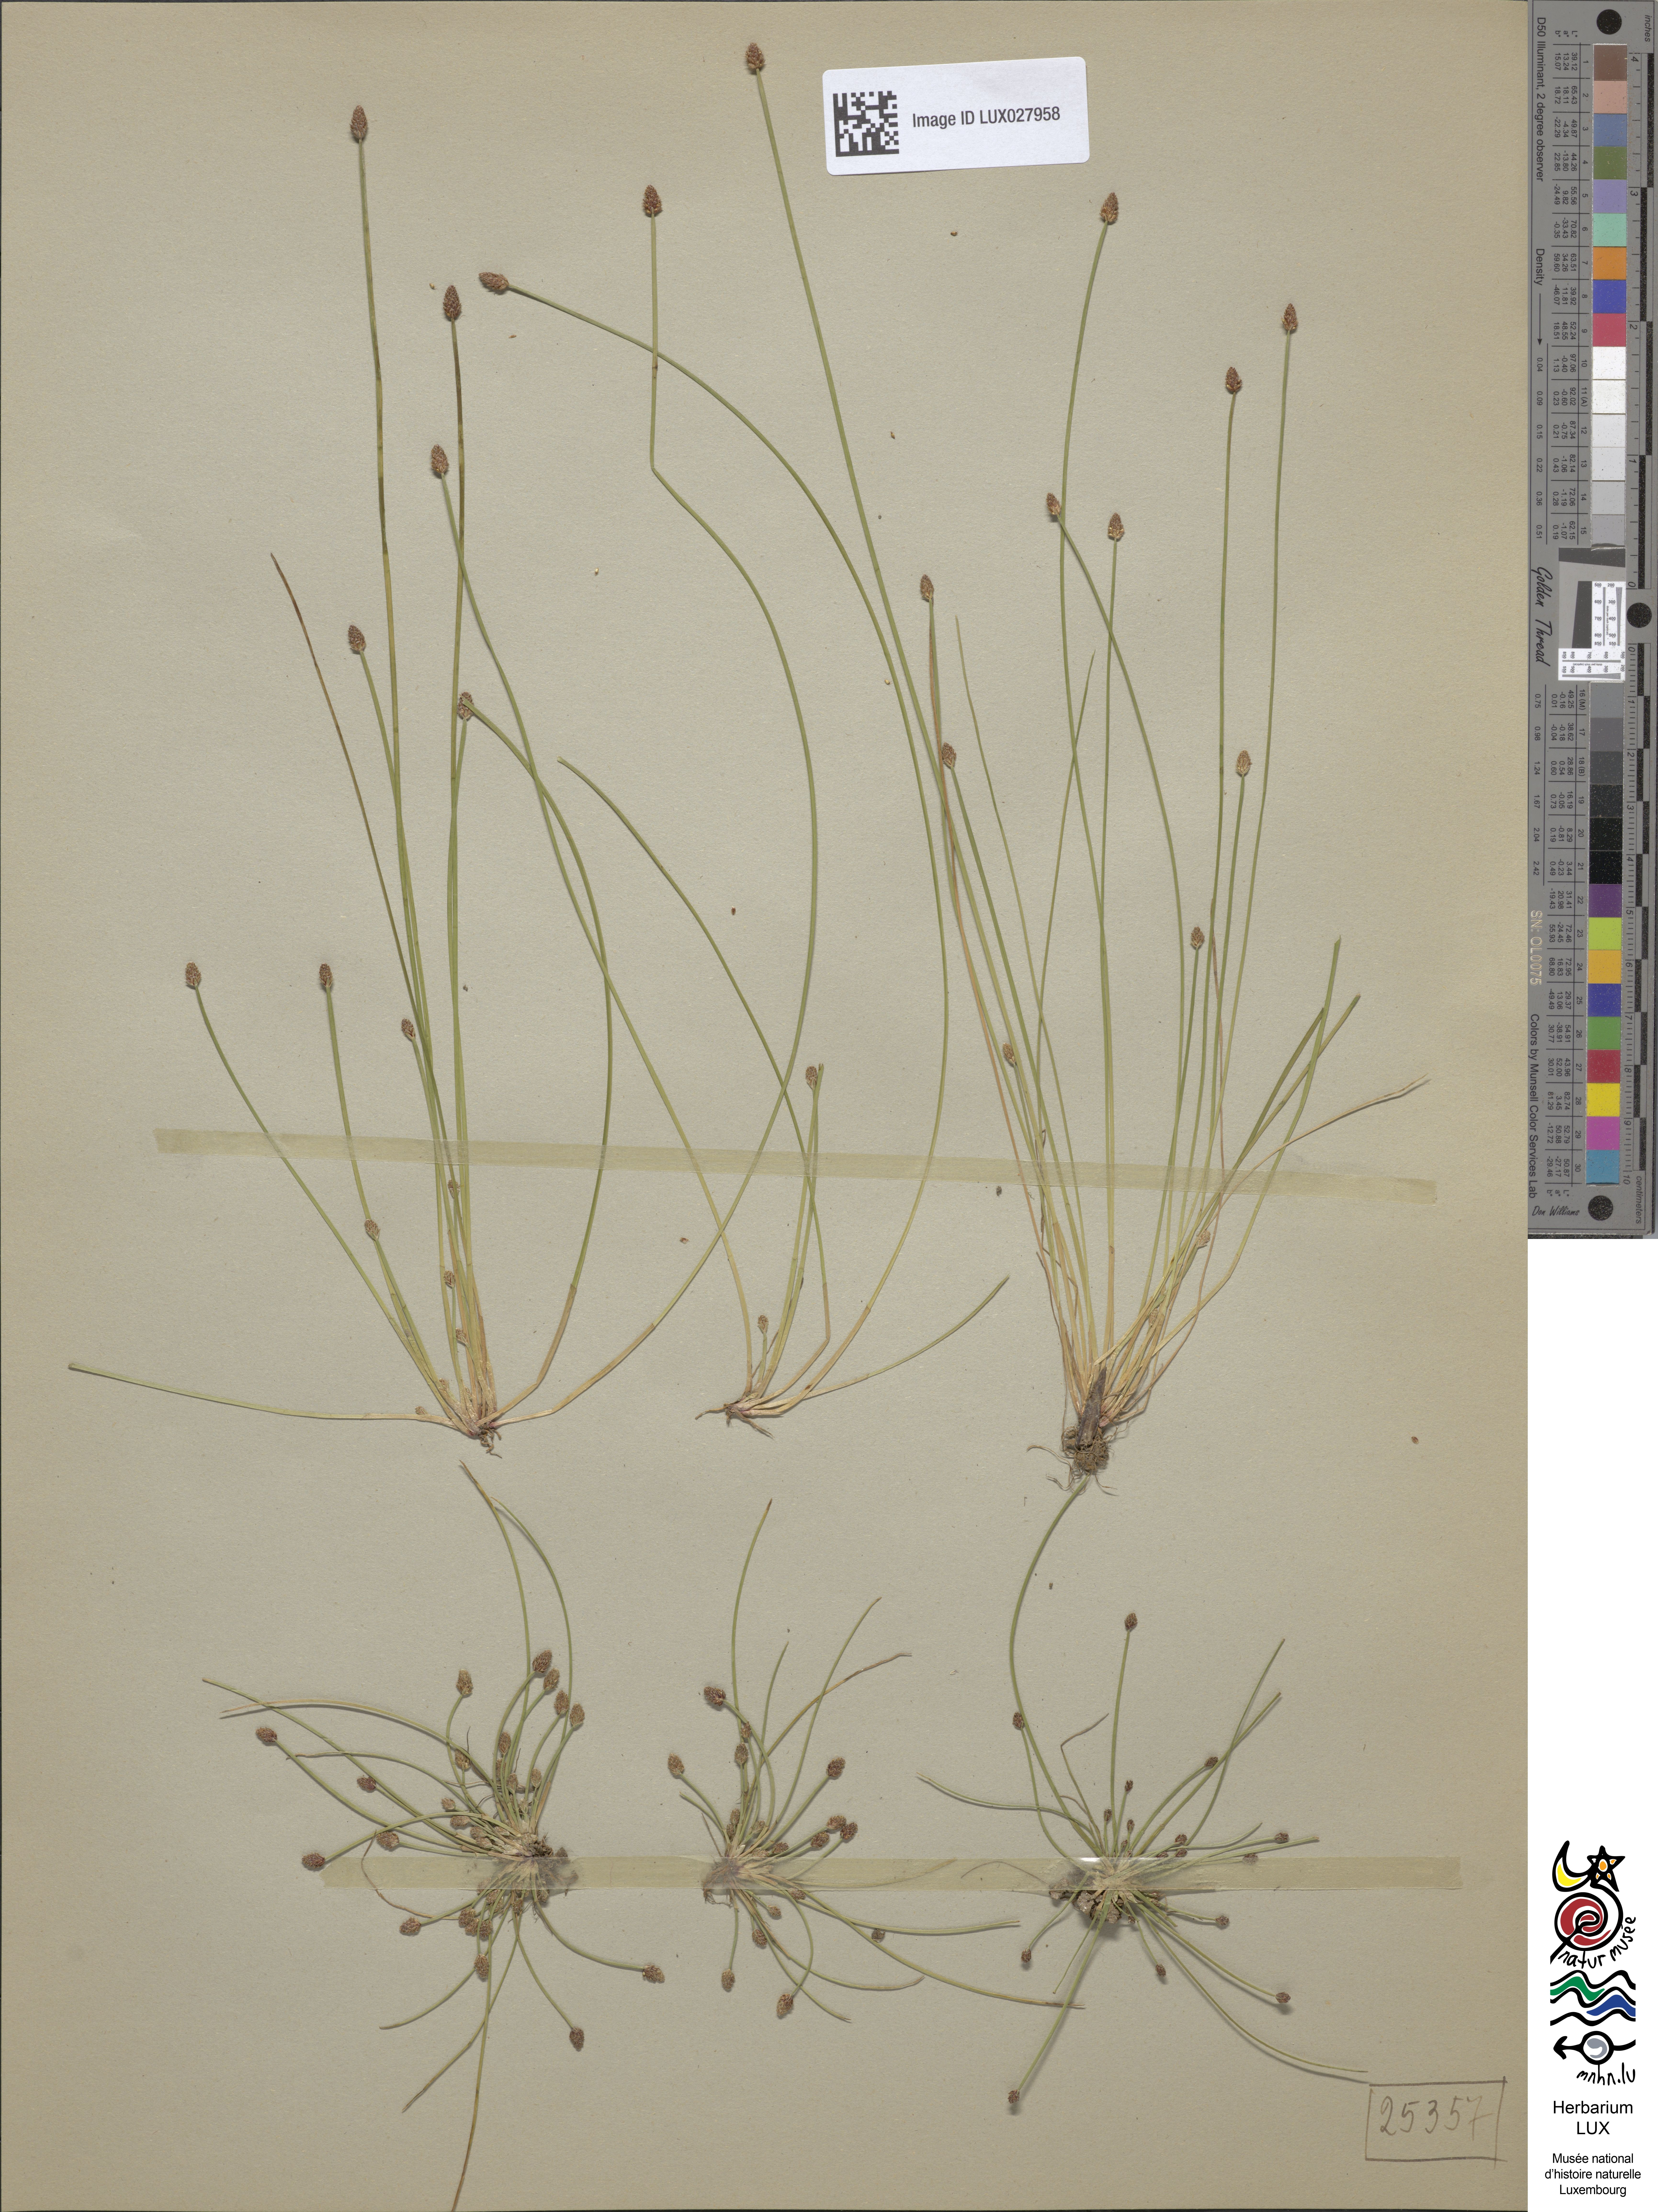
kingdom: Plantae
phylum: Tracheophyta
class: Liliopsida
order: Poales
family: Cyperaceae
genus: Eleocharis
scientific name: Eleocharis ovata
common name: Oval spike-rush
